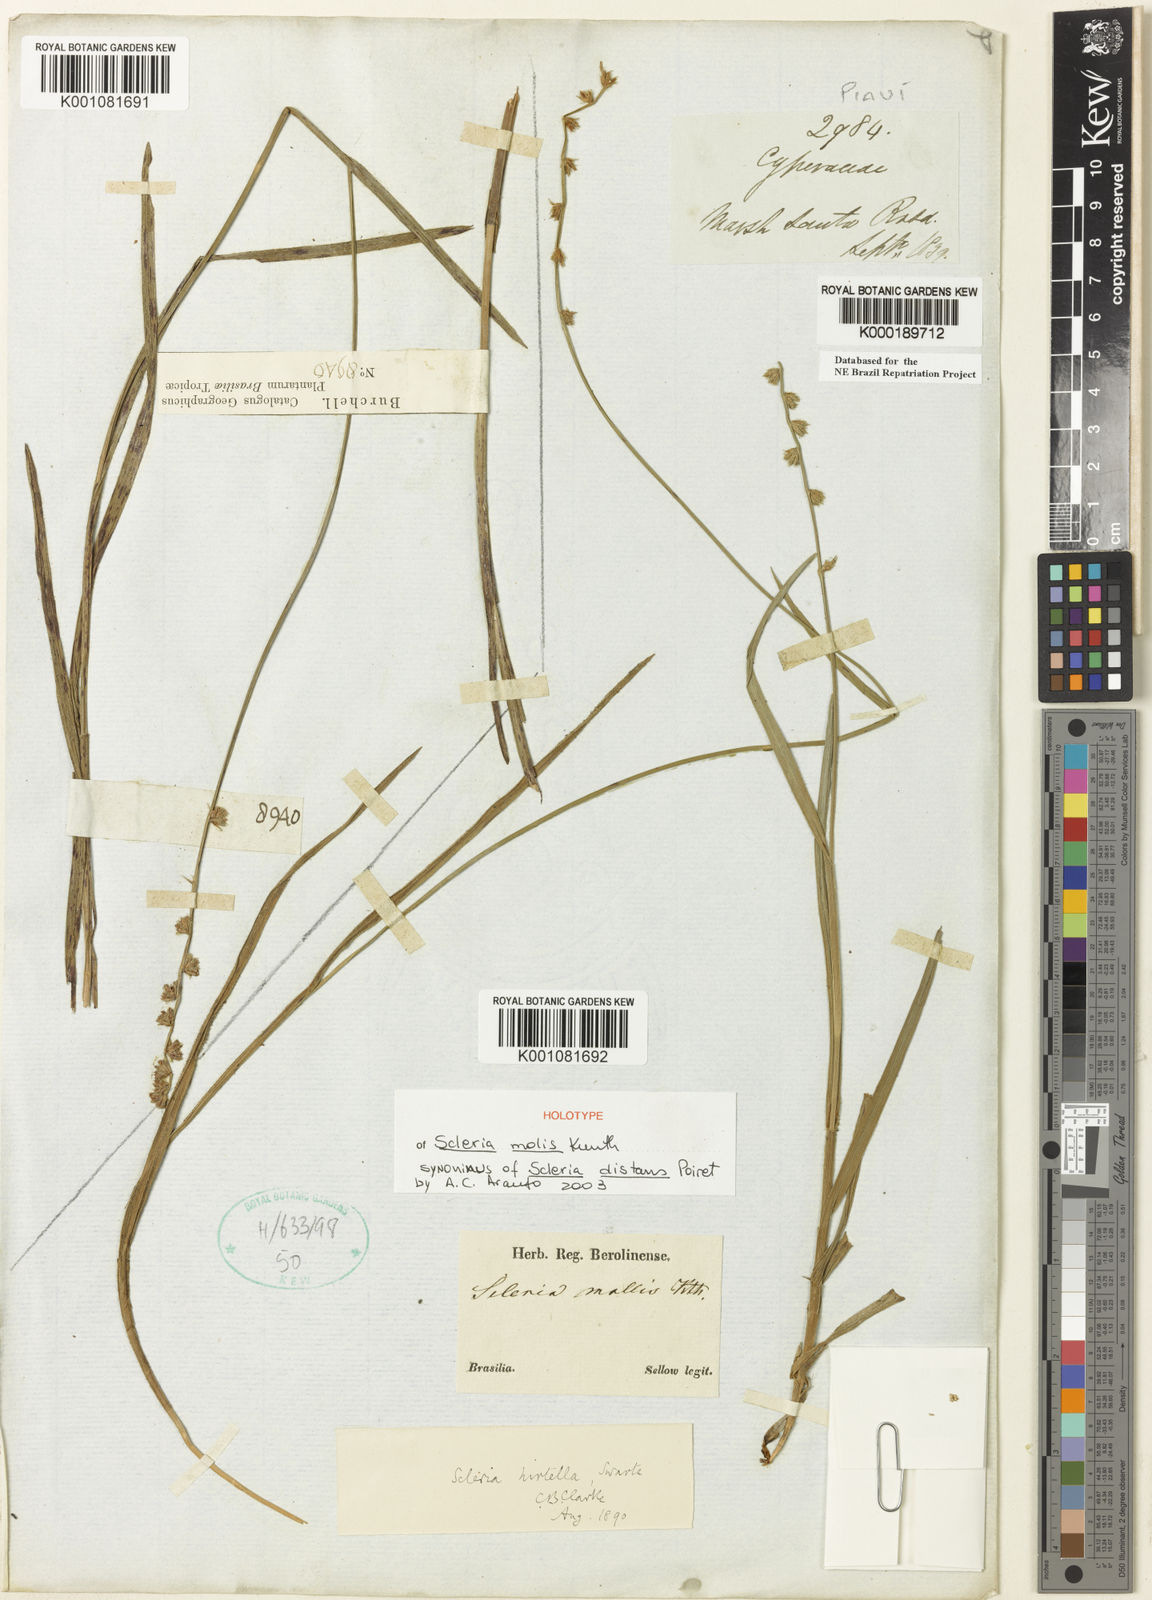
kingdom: Plantae
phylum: Tracheophyta
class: Liliopsida
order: Poales
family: Cyperaceae
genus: Scleria
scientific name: Scleria distans
